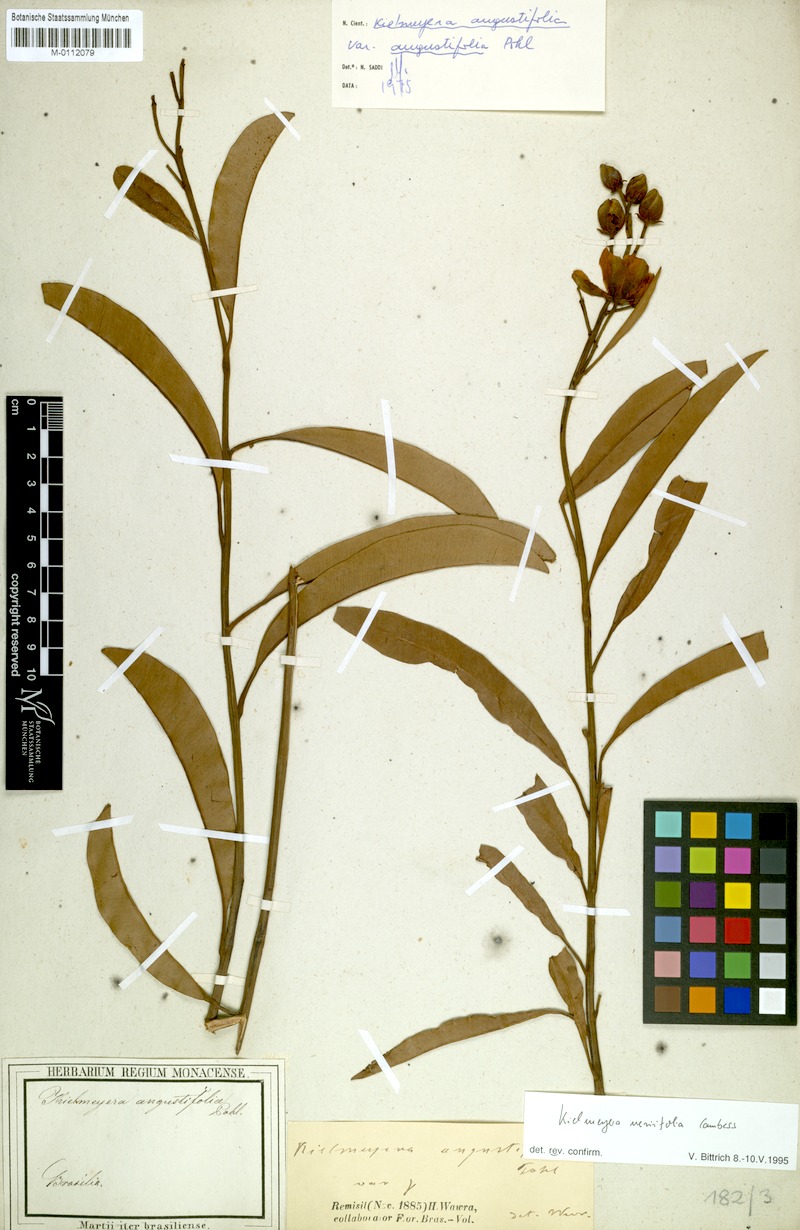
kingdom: Plantae
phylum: Tracheophyta
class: Magnoliopsida
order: Malpighiales
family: Calophyllaceae
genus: Kielmeyera
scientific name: Kielmeyera neriifolia
